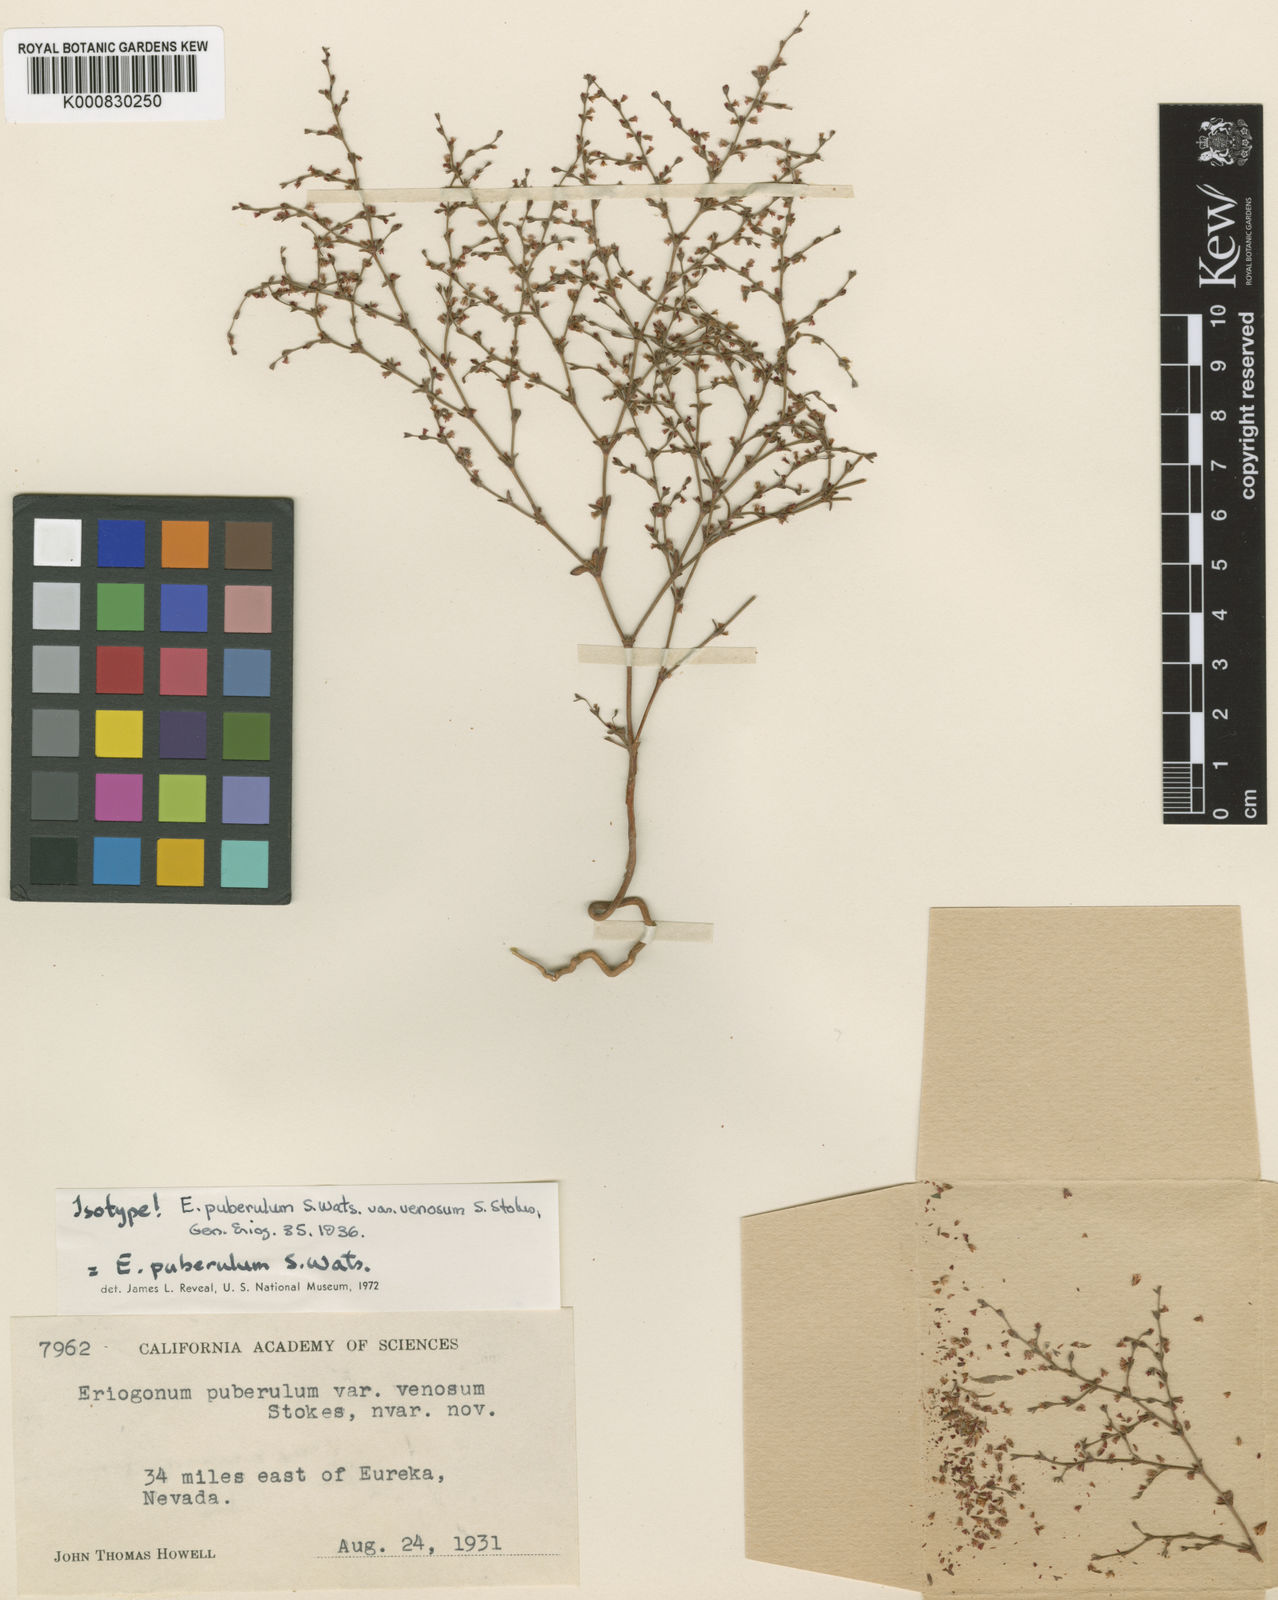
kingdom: Plantae
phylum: Tracheophyta
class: Magnoliopsida
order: Caryophyllales
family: Polygonaceae
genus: Johanneshowellia
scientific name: Johanneshowellia puberula
